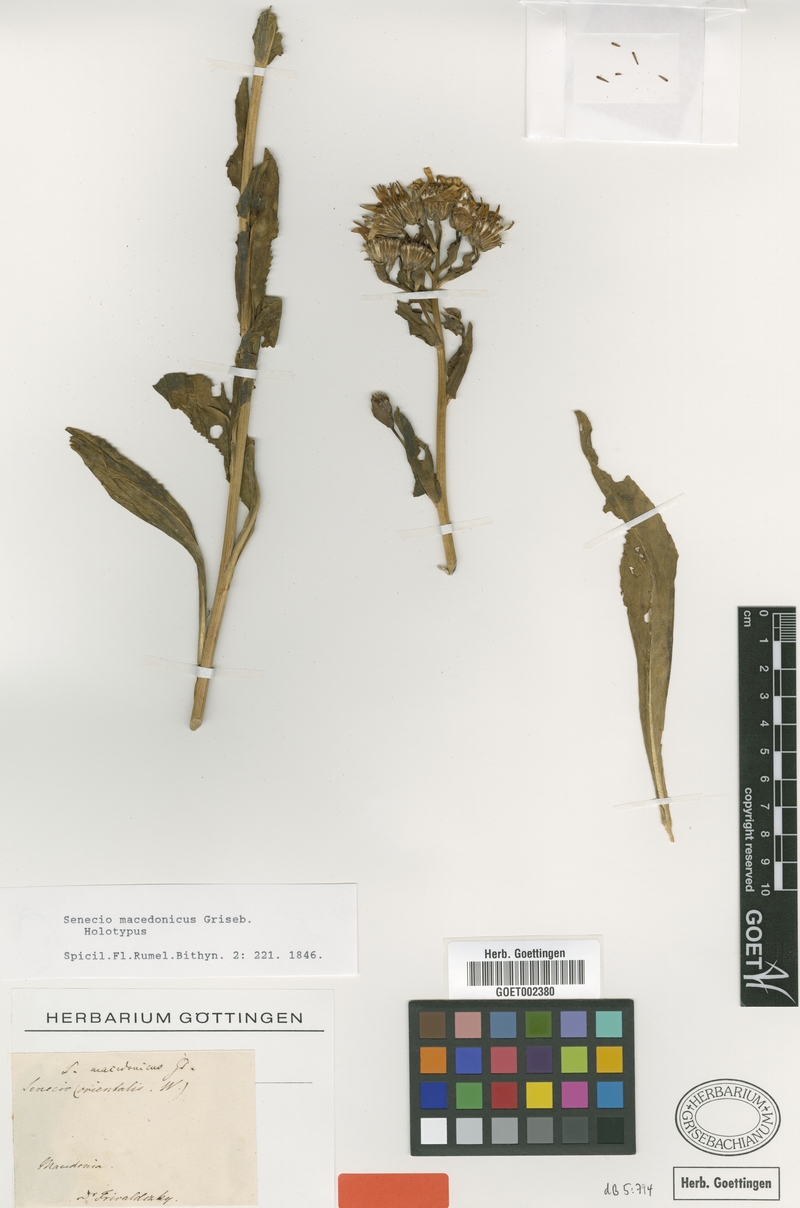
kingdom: Plantae
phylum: Tracheophyta
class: Magnoliopsida
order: Asterales
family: Asteraceae
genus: Senecio
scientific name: Senecio macedonicus
